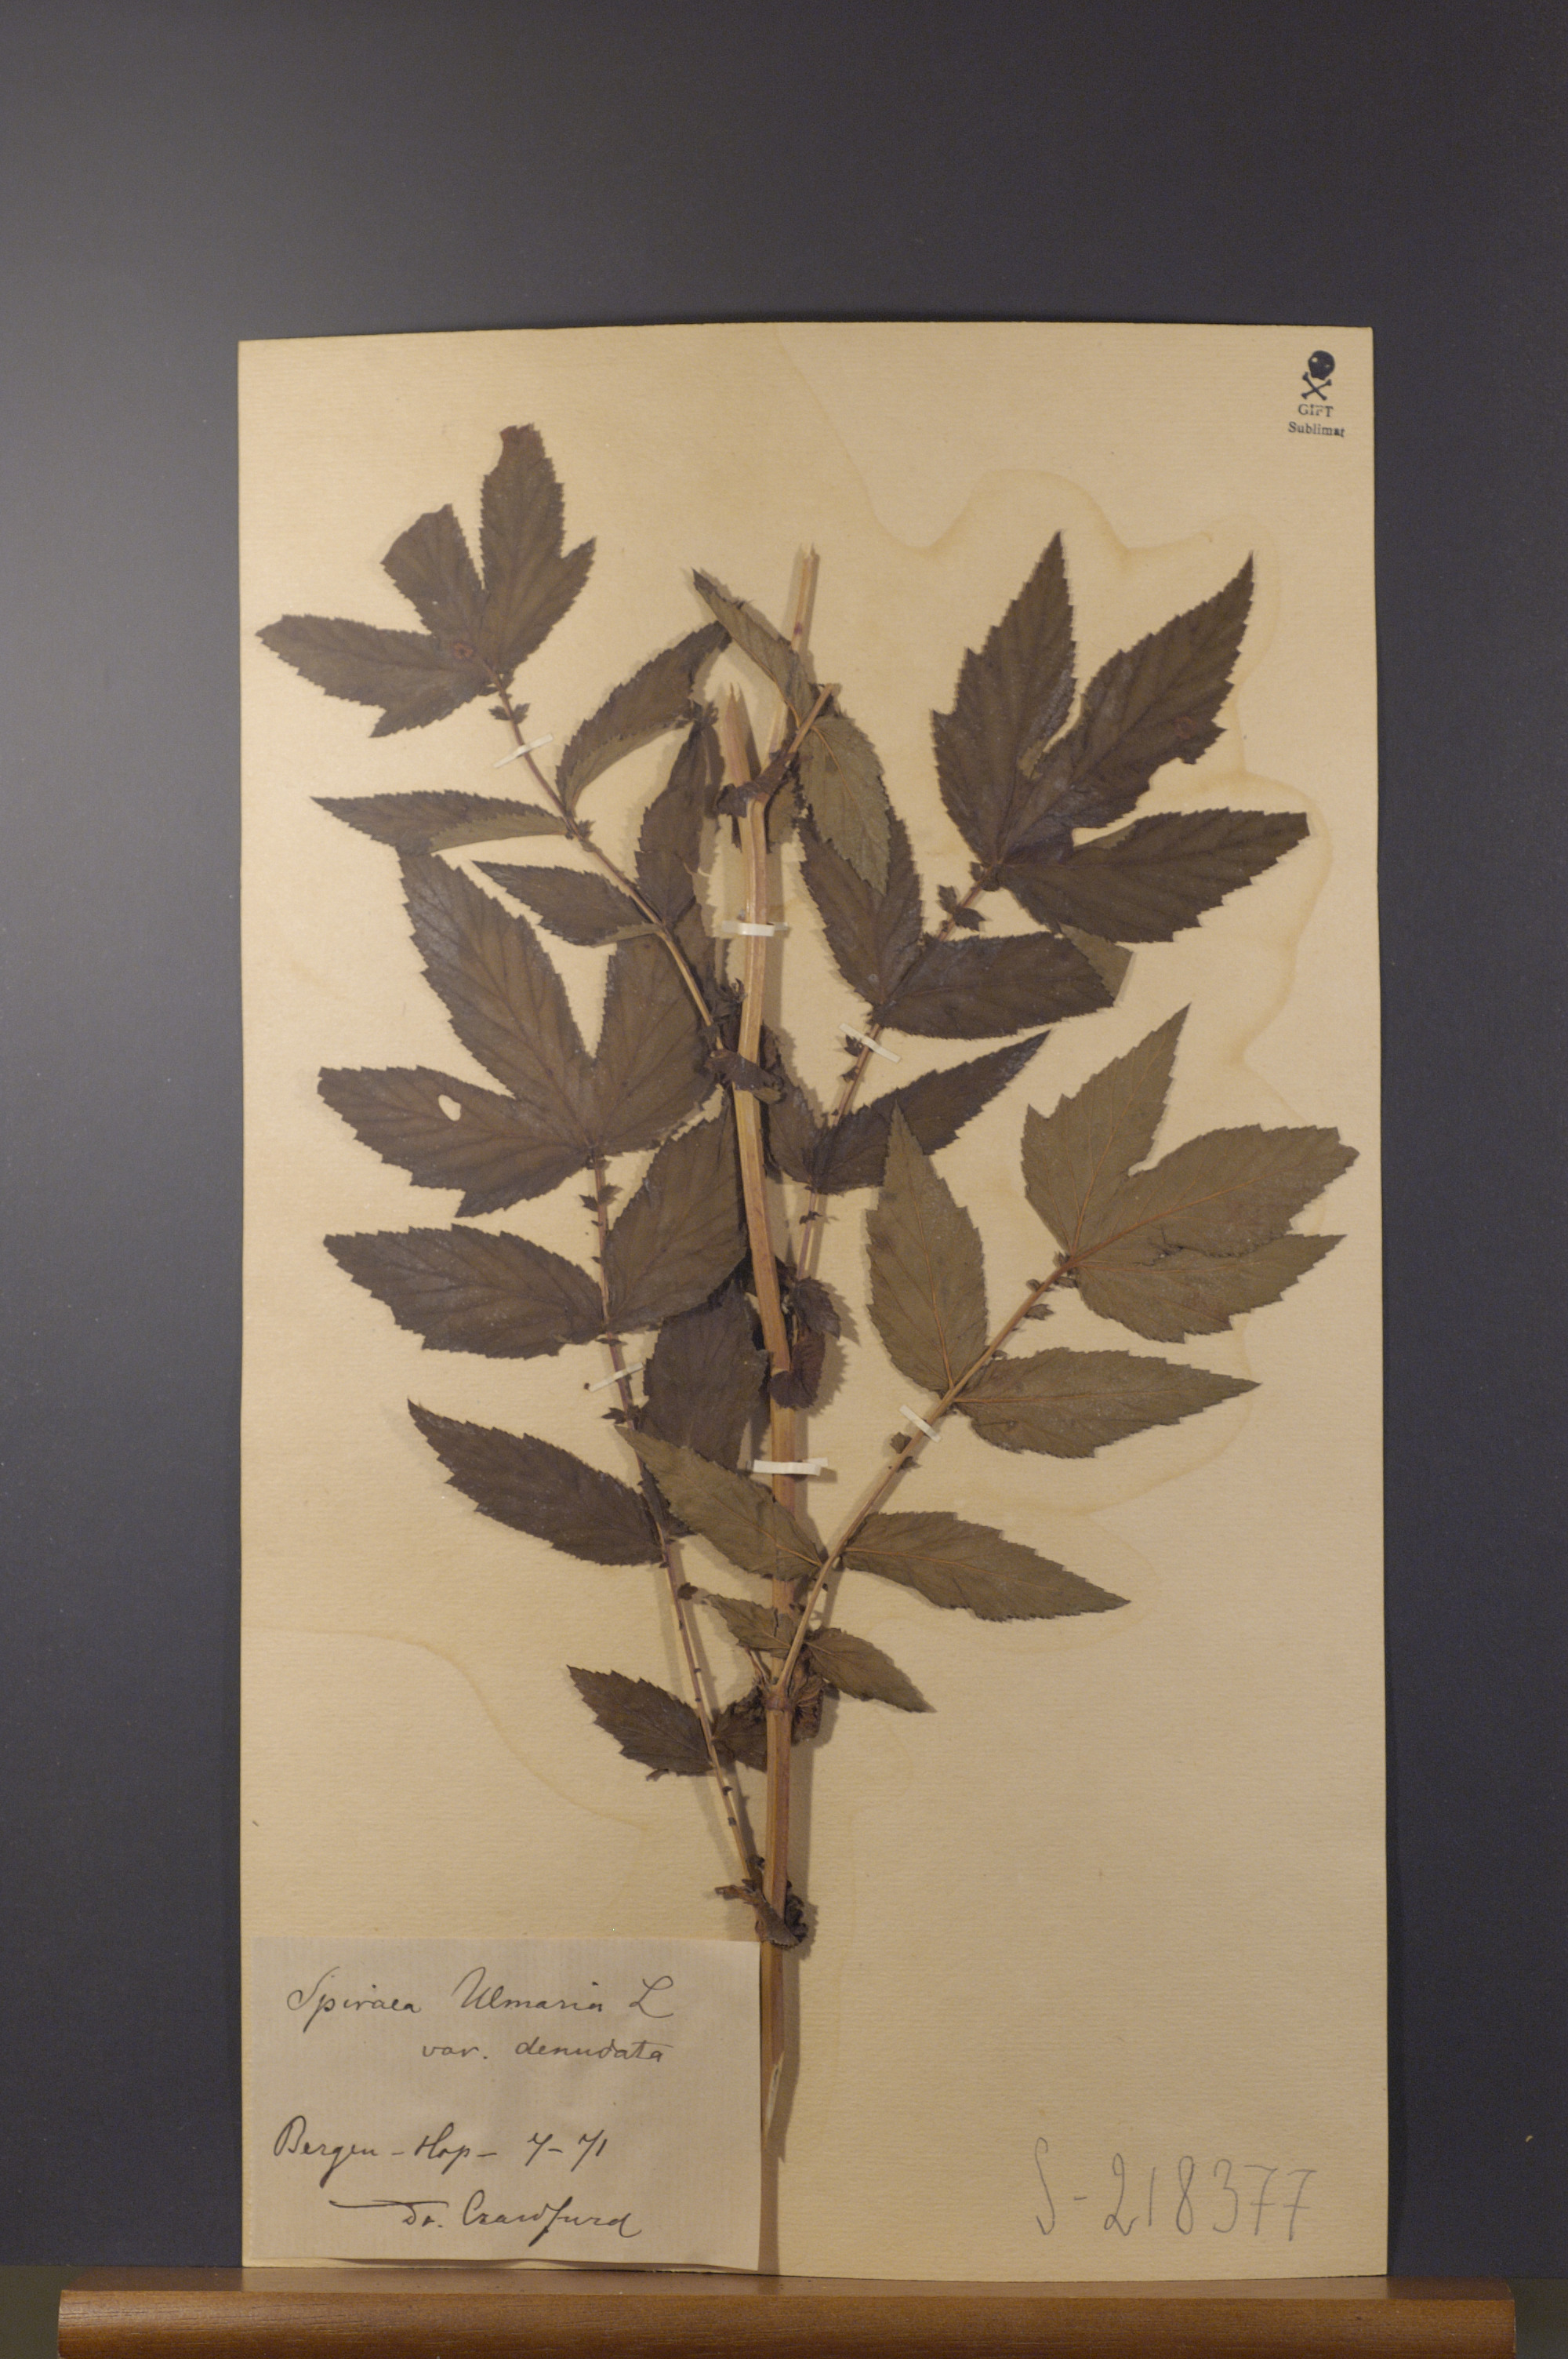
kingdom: Plantae
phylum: Tracheophyta
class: Magnoliopsida
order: Rosales
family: Rosaceae
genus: Filipendula
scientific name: Filipendula ulmaria
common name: Meadowsweet
